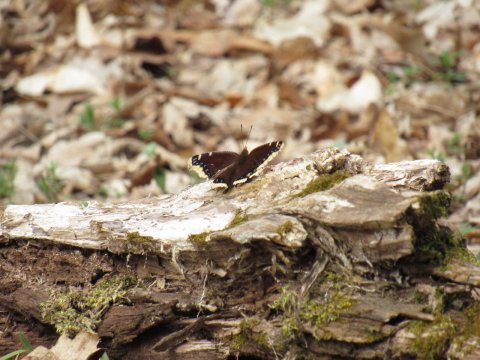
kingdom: Animalia
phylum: Arthropoda
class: Insecta
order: Lepidoptera
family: Nymphalidae
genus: Nymphalis
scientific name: Nymphalis antiopa
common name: Mourning Cloak
